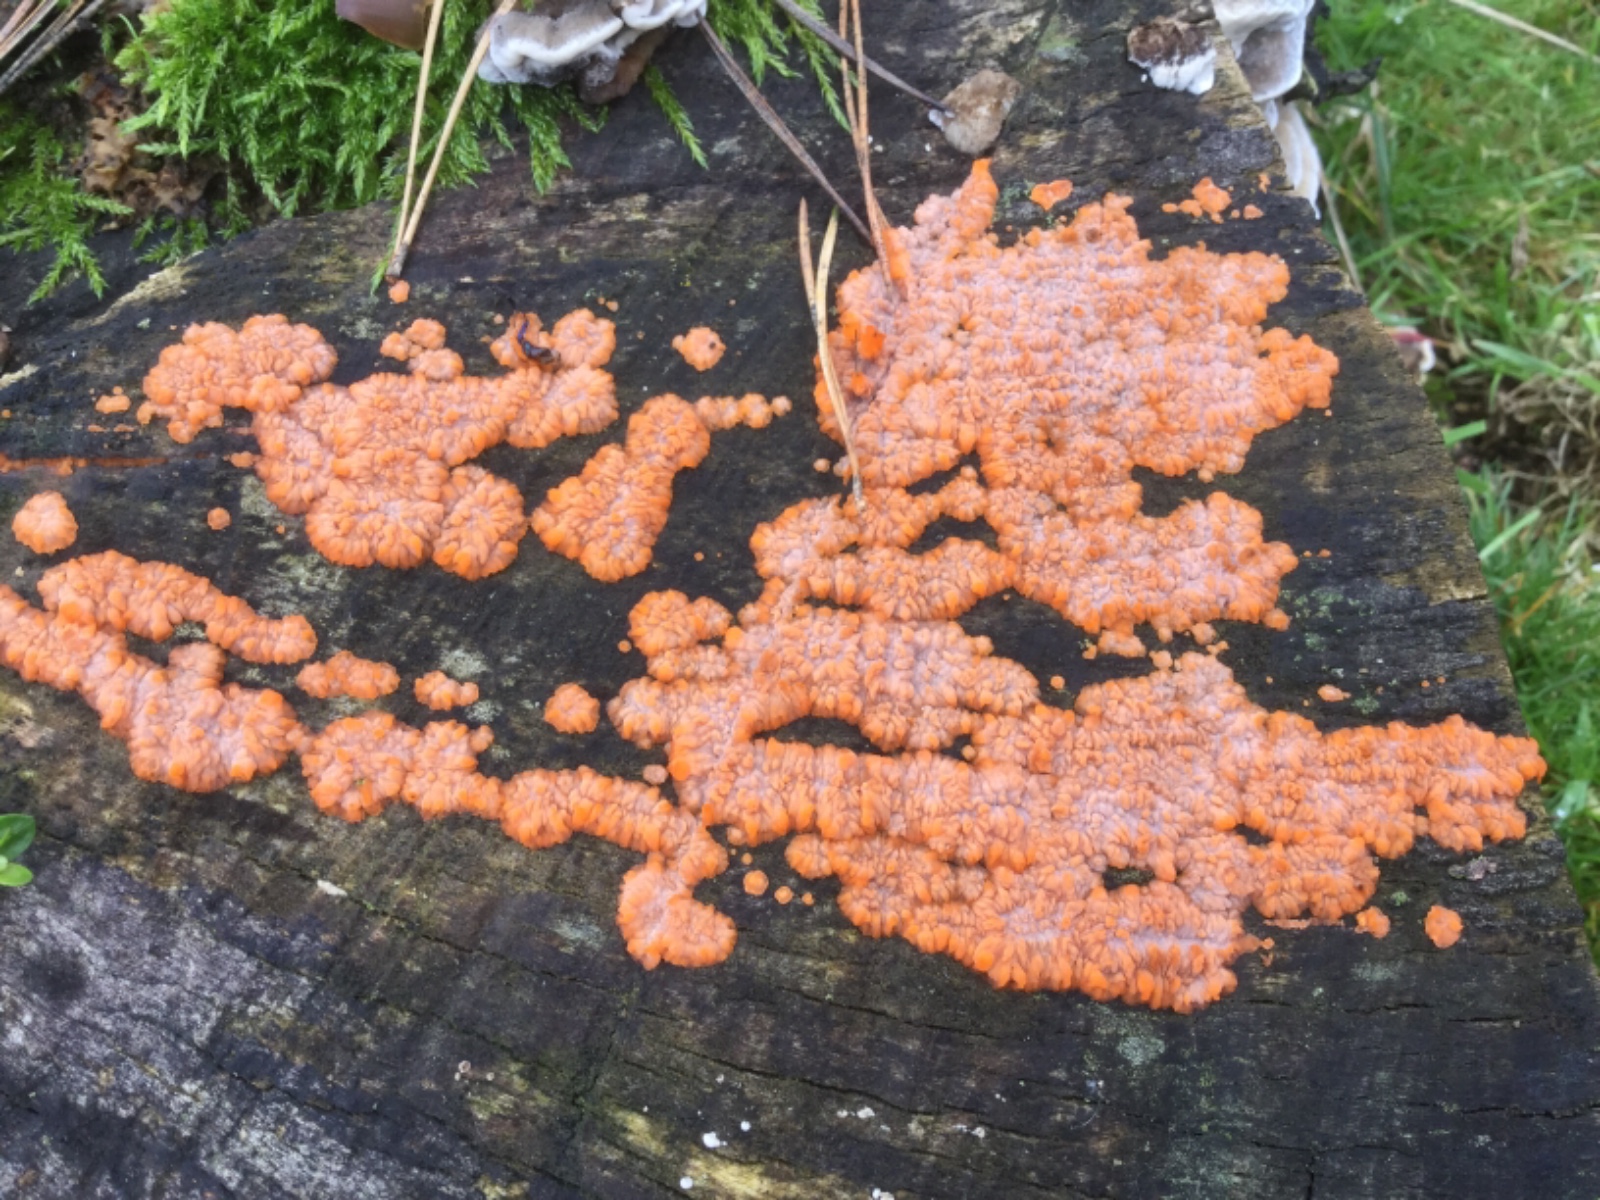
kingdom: Fungi
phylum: Basidiomycota
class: Agaricomycetes
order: Polyporales
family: Meruliaceae
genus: Phlebia
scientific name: Phlebia radiata
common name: stråle-åresvamp
